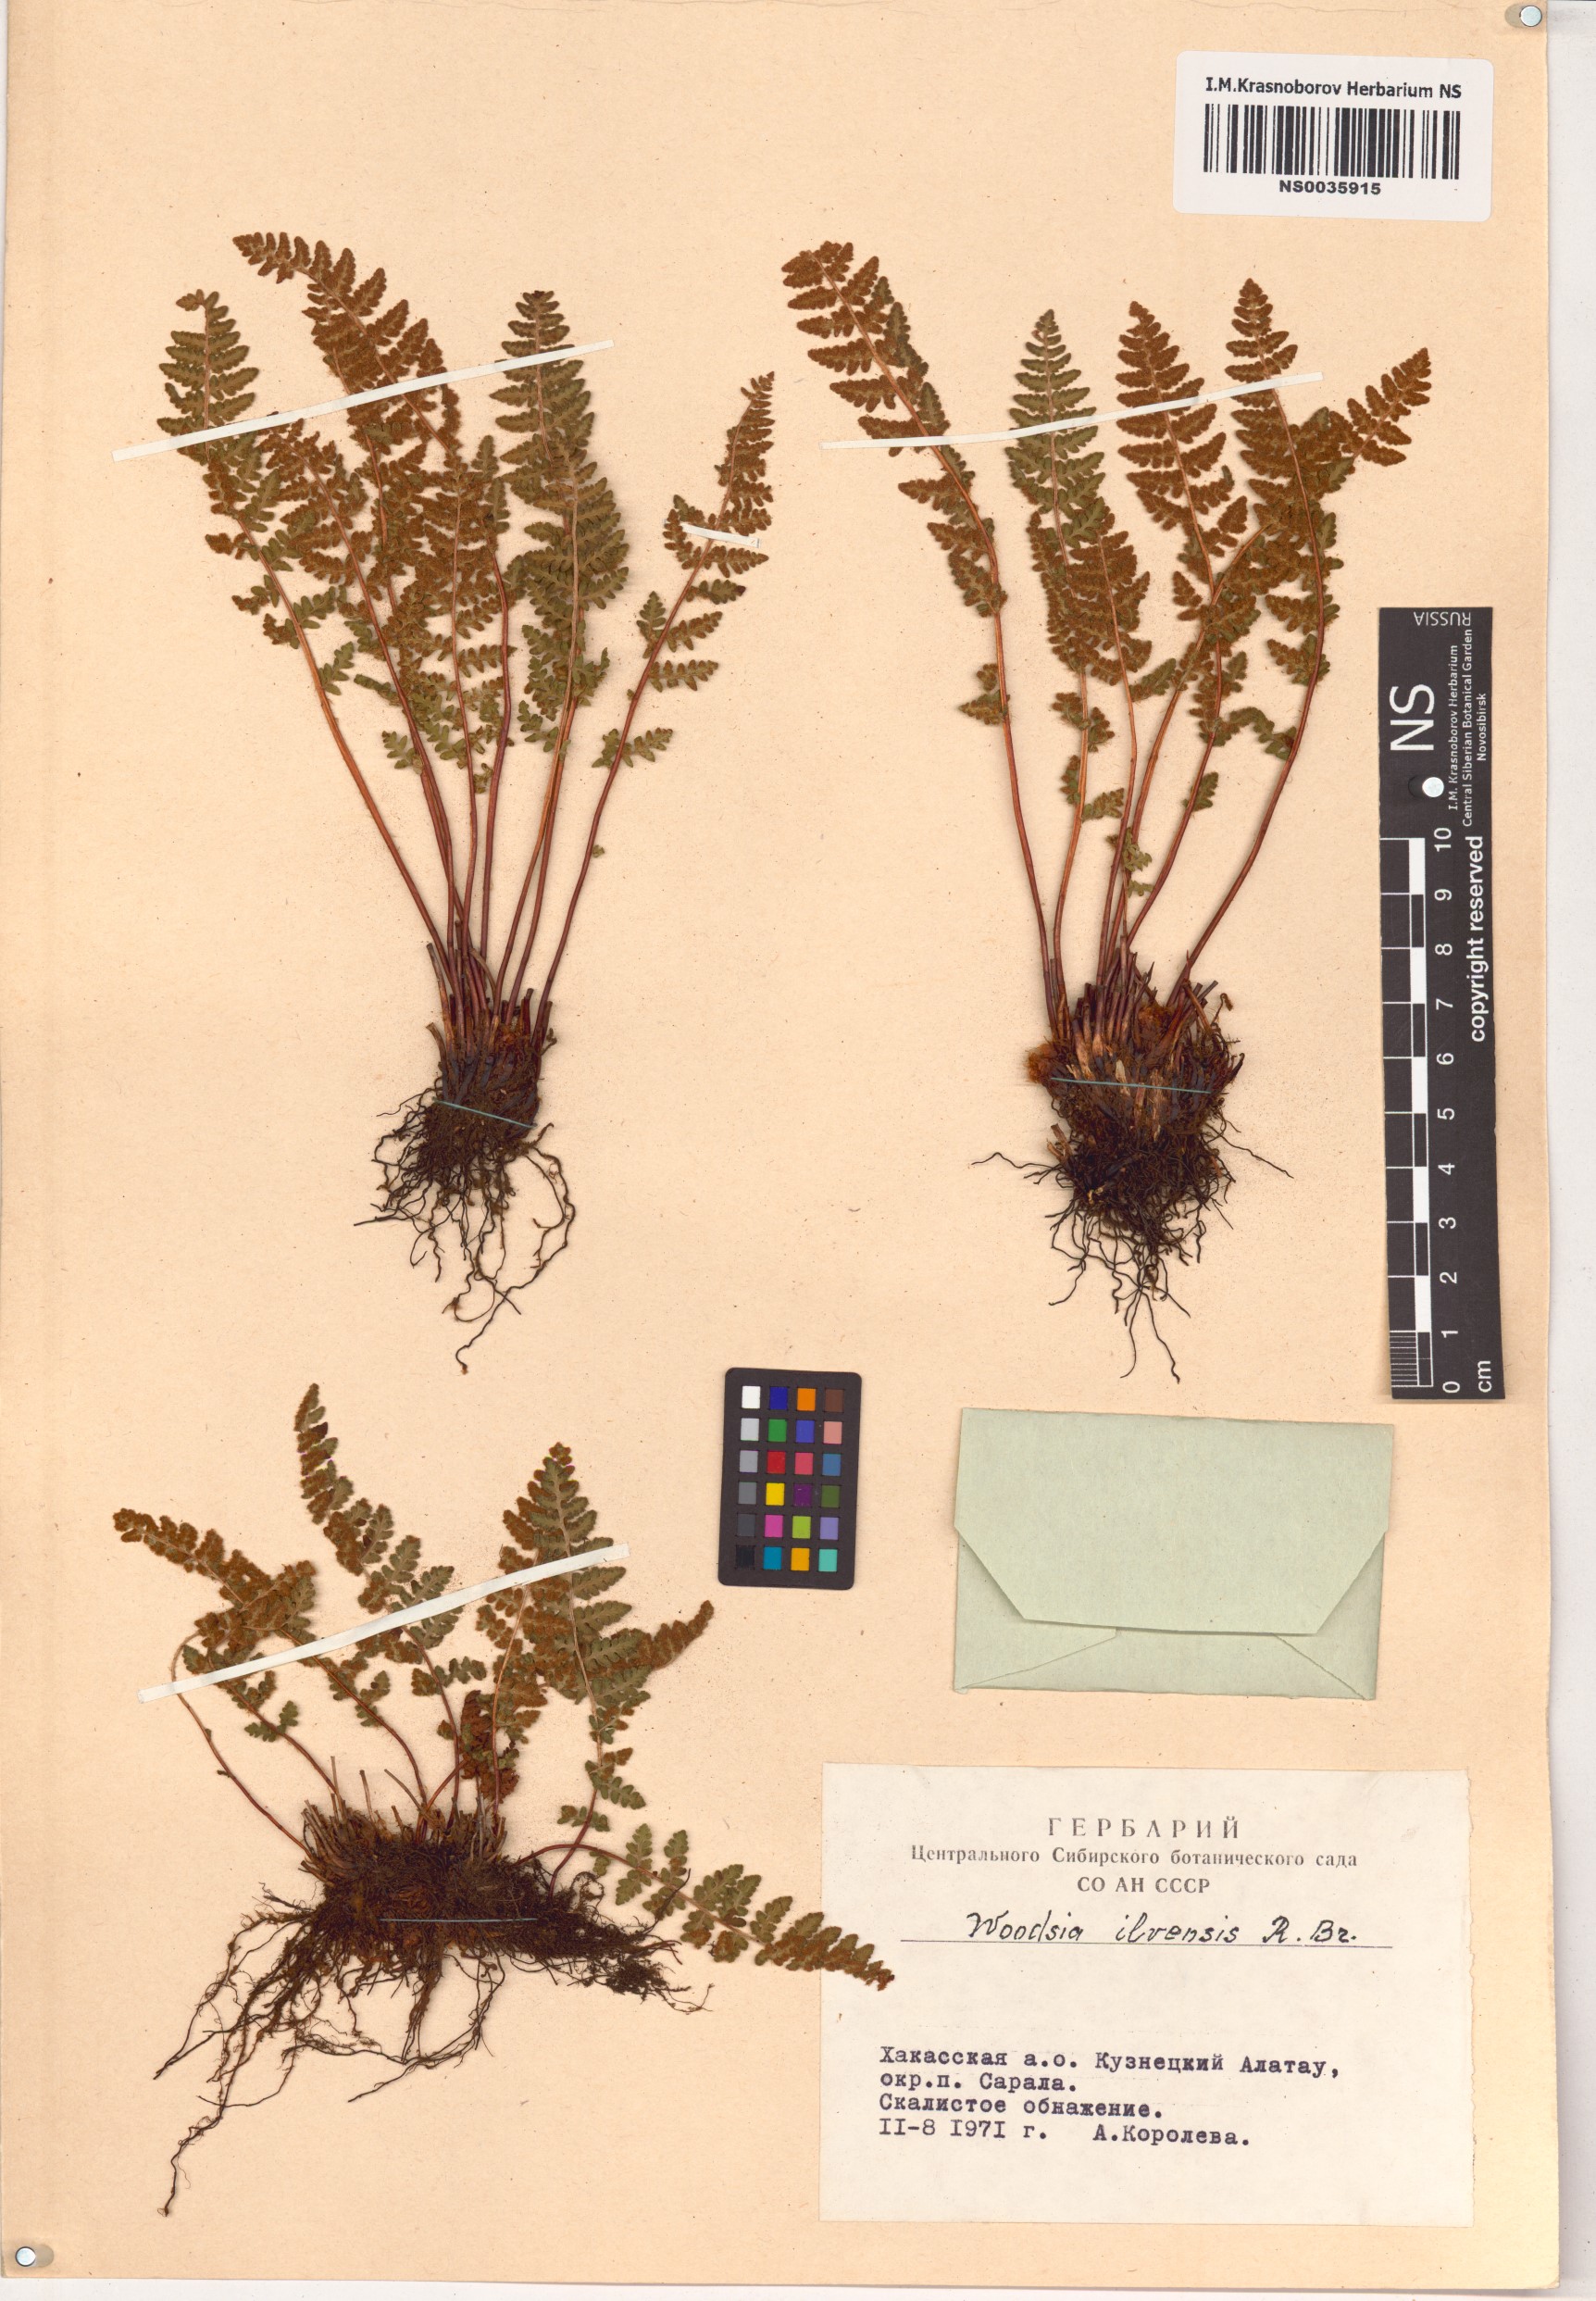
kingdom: Plantae
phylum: Tracheophyta
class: Polypodiopsida
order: Polypodiales
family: Woodsiaceae
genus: Woodsia
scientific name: Woodsia ilvensis
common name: Fragrant woodsia
